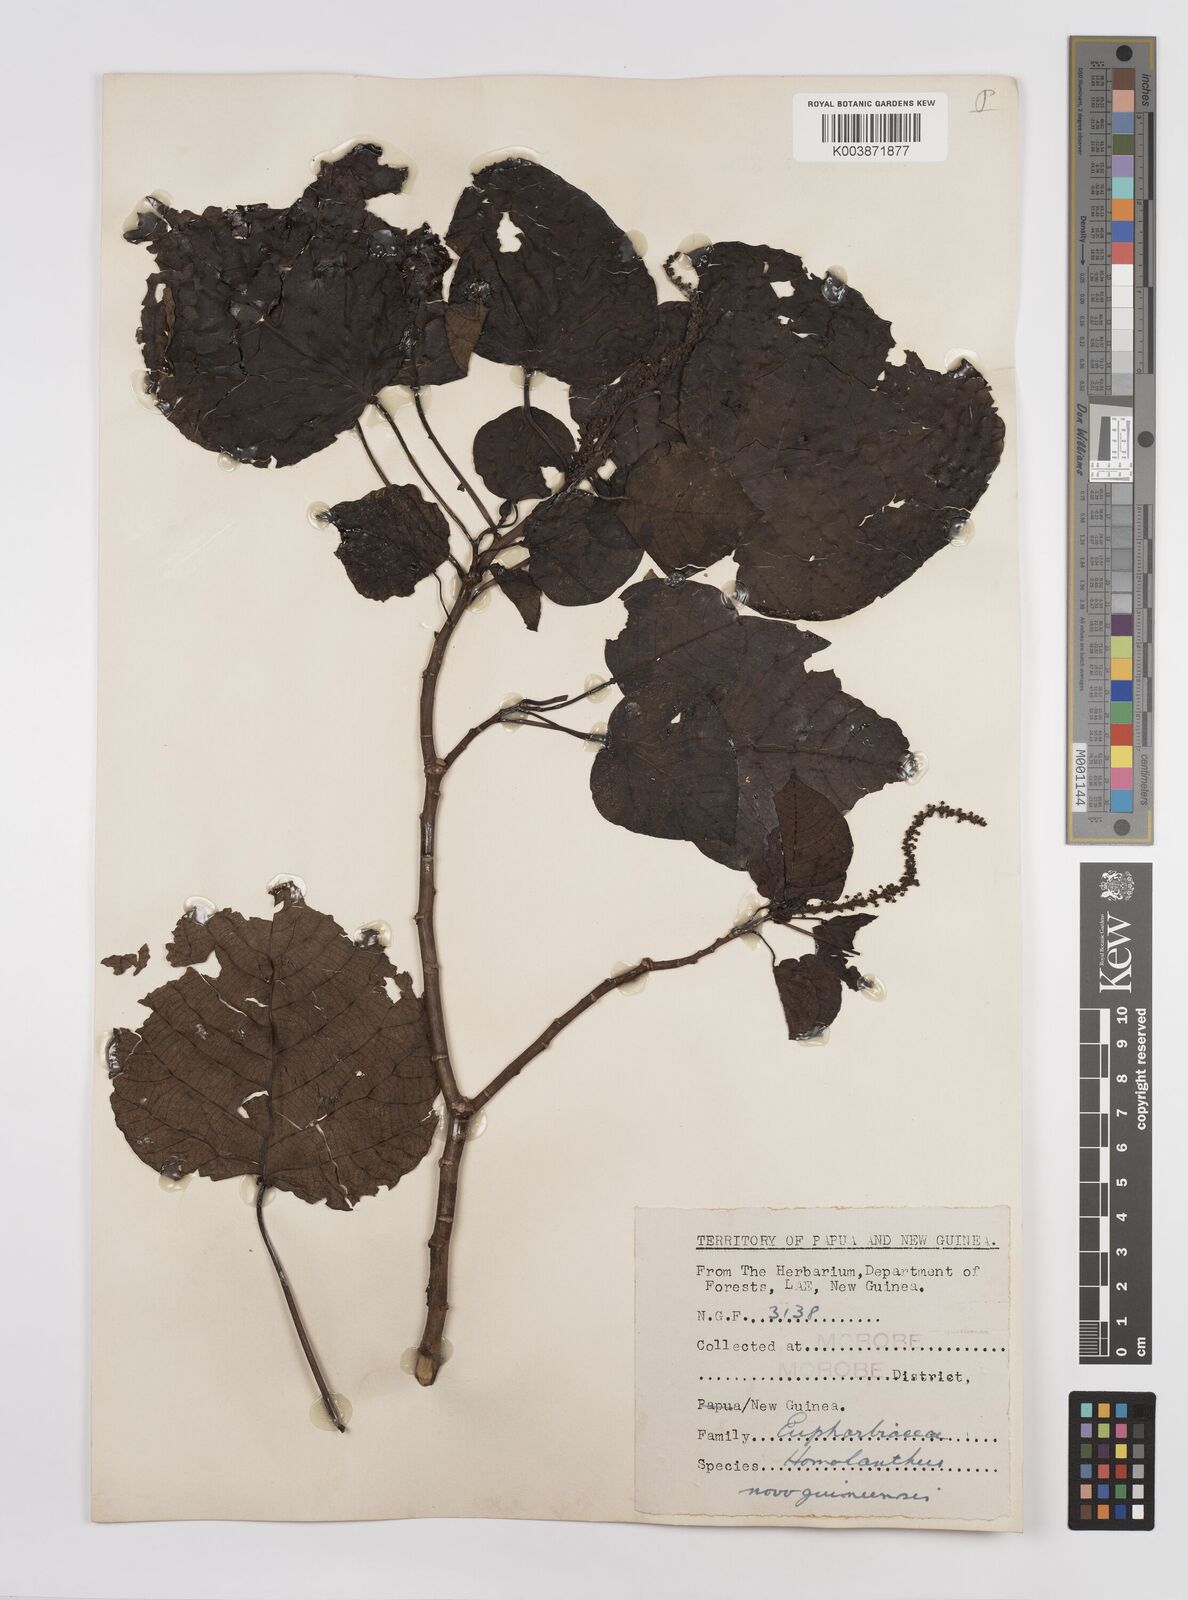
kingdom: Plantae
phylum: Tracheophyta
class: Magnoliopsida
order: Malpighiales
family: Euphorbiaceae
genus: Homalanthus
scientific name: Homalanthus novoguineensis
